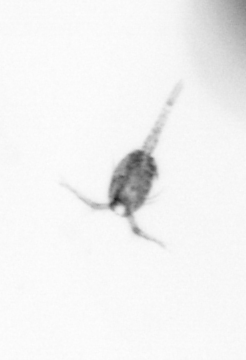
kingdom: Animalia
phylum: Arthropoda
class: Copepoda
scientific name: Copepoda
